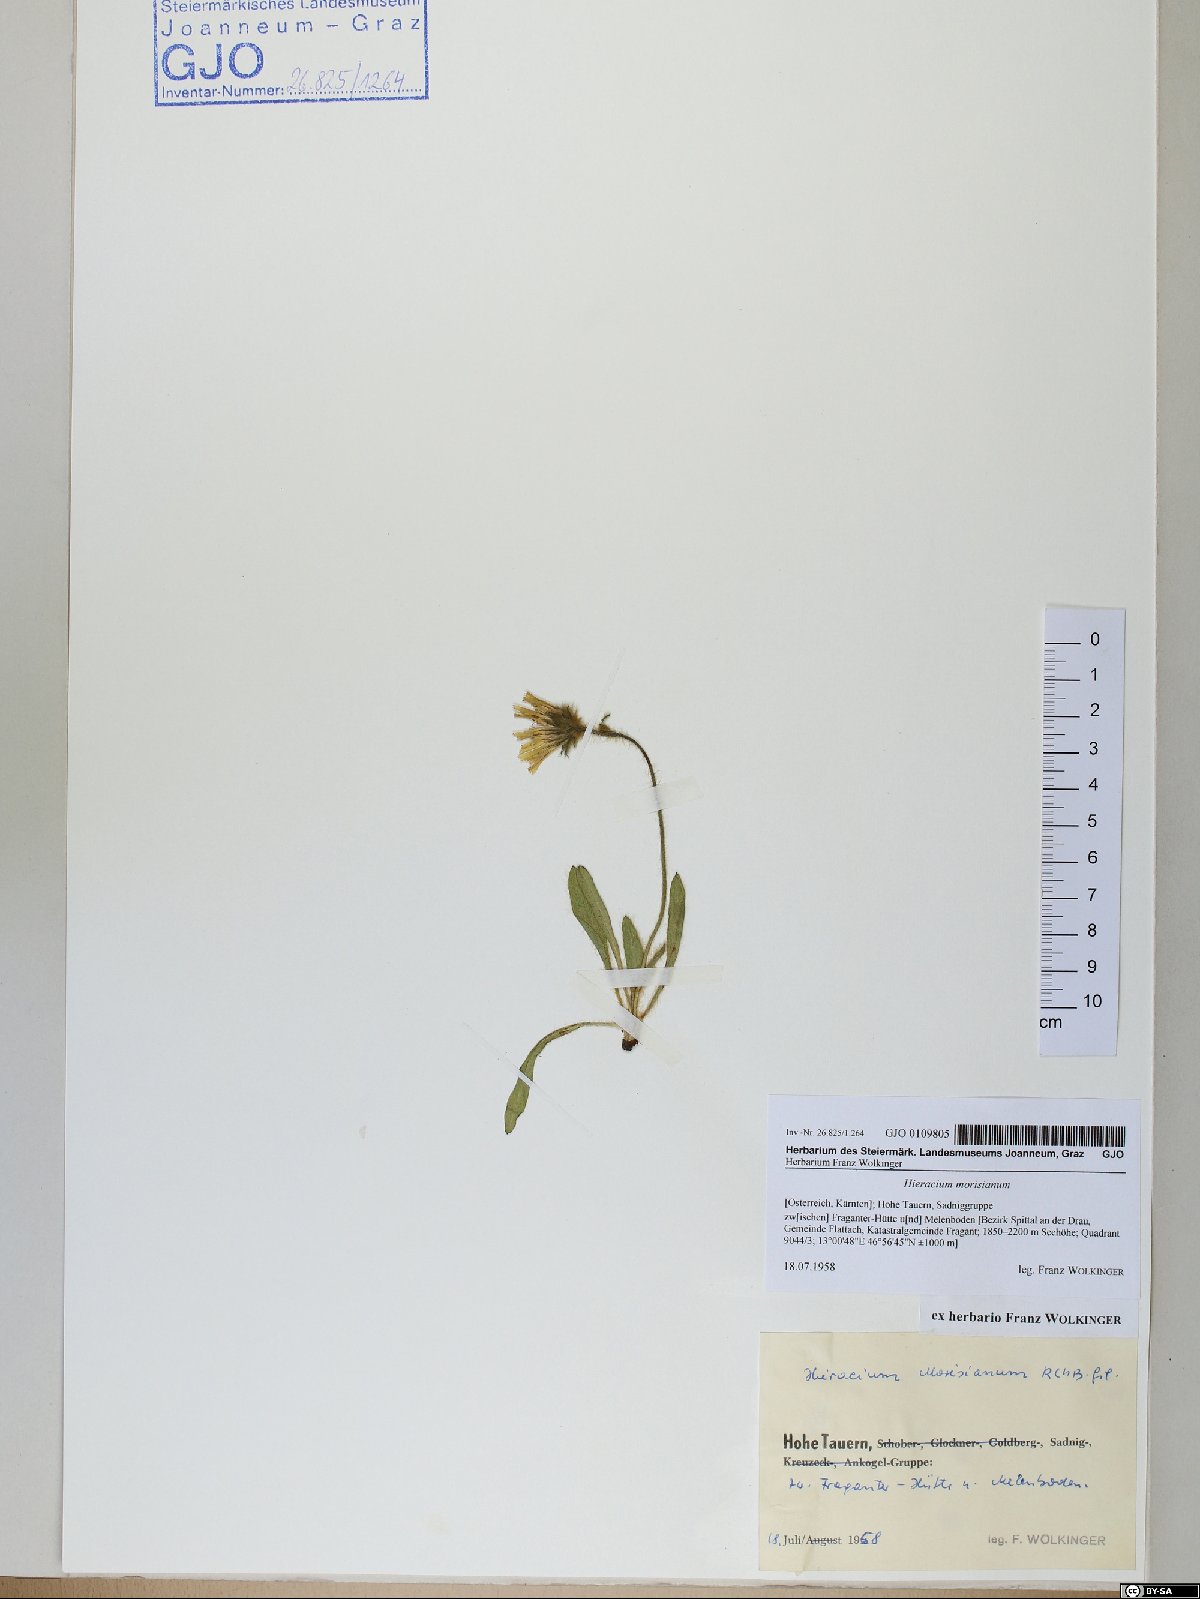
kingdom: Plantae
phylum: Tracheophyta
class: Magnoliopsida
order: Asterales
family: Asteraceae
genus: Hieracium
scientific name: Hieracium pilosum
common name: Fimbriate-pitted hawkweed
